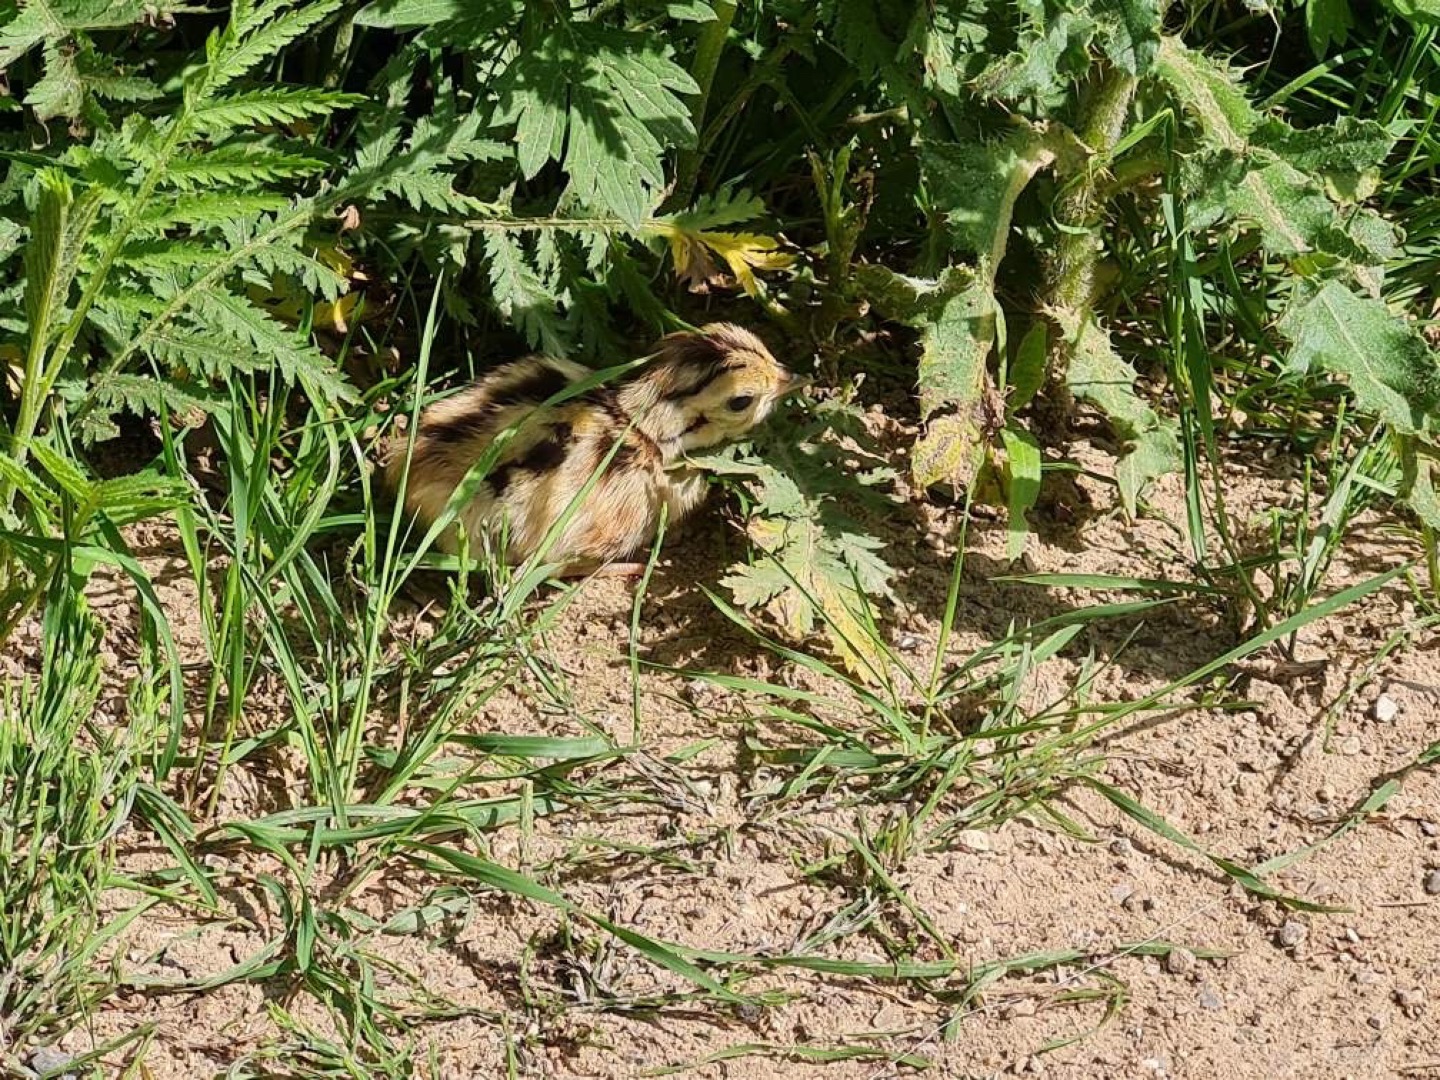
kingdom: Animalia
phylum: Chordata
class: Aves
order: Galliformes
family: Phasianidae
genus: Phasianus
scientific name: Phasianus colchicus
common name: Fasan
